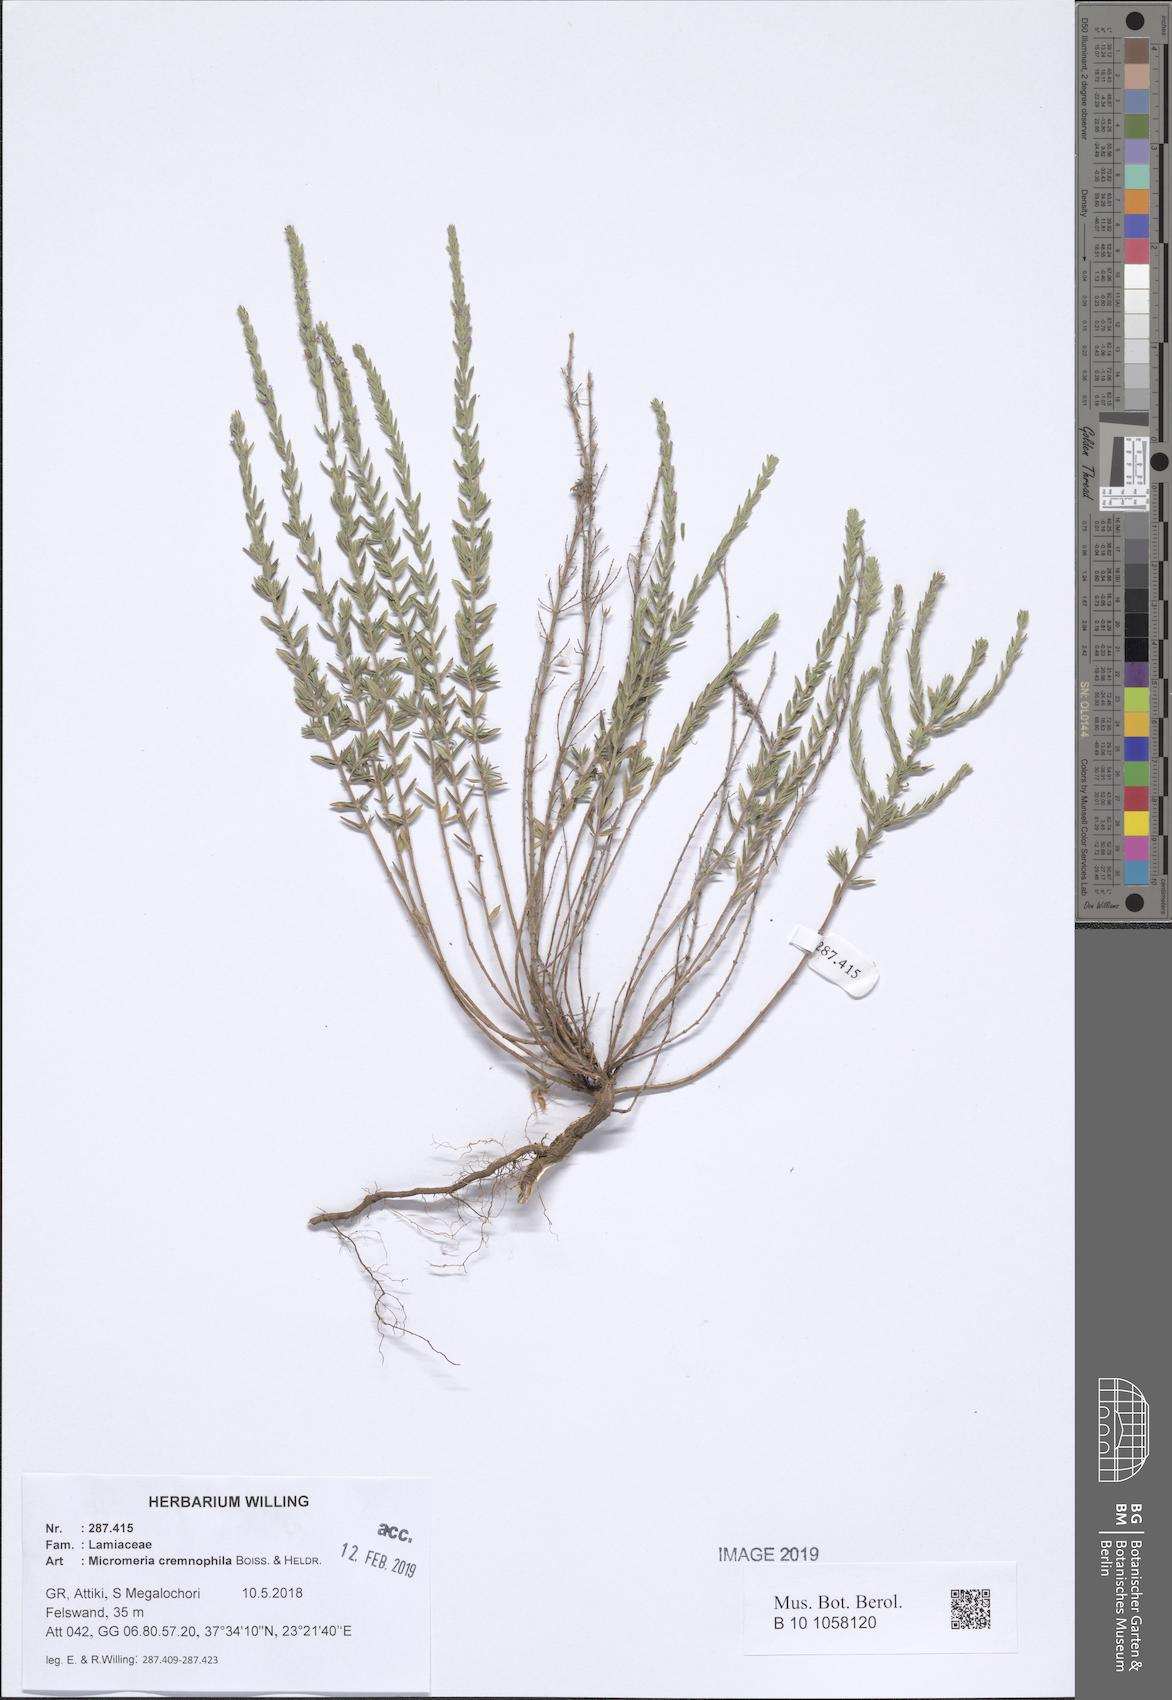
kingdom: Plantae
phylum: Tracheophyta
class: Magnoliopsida
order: Lamiales
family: Lamiaceae
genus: Micromeria
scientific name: Micromeria juliana
